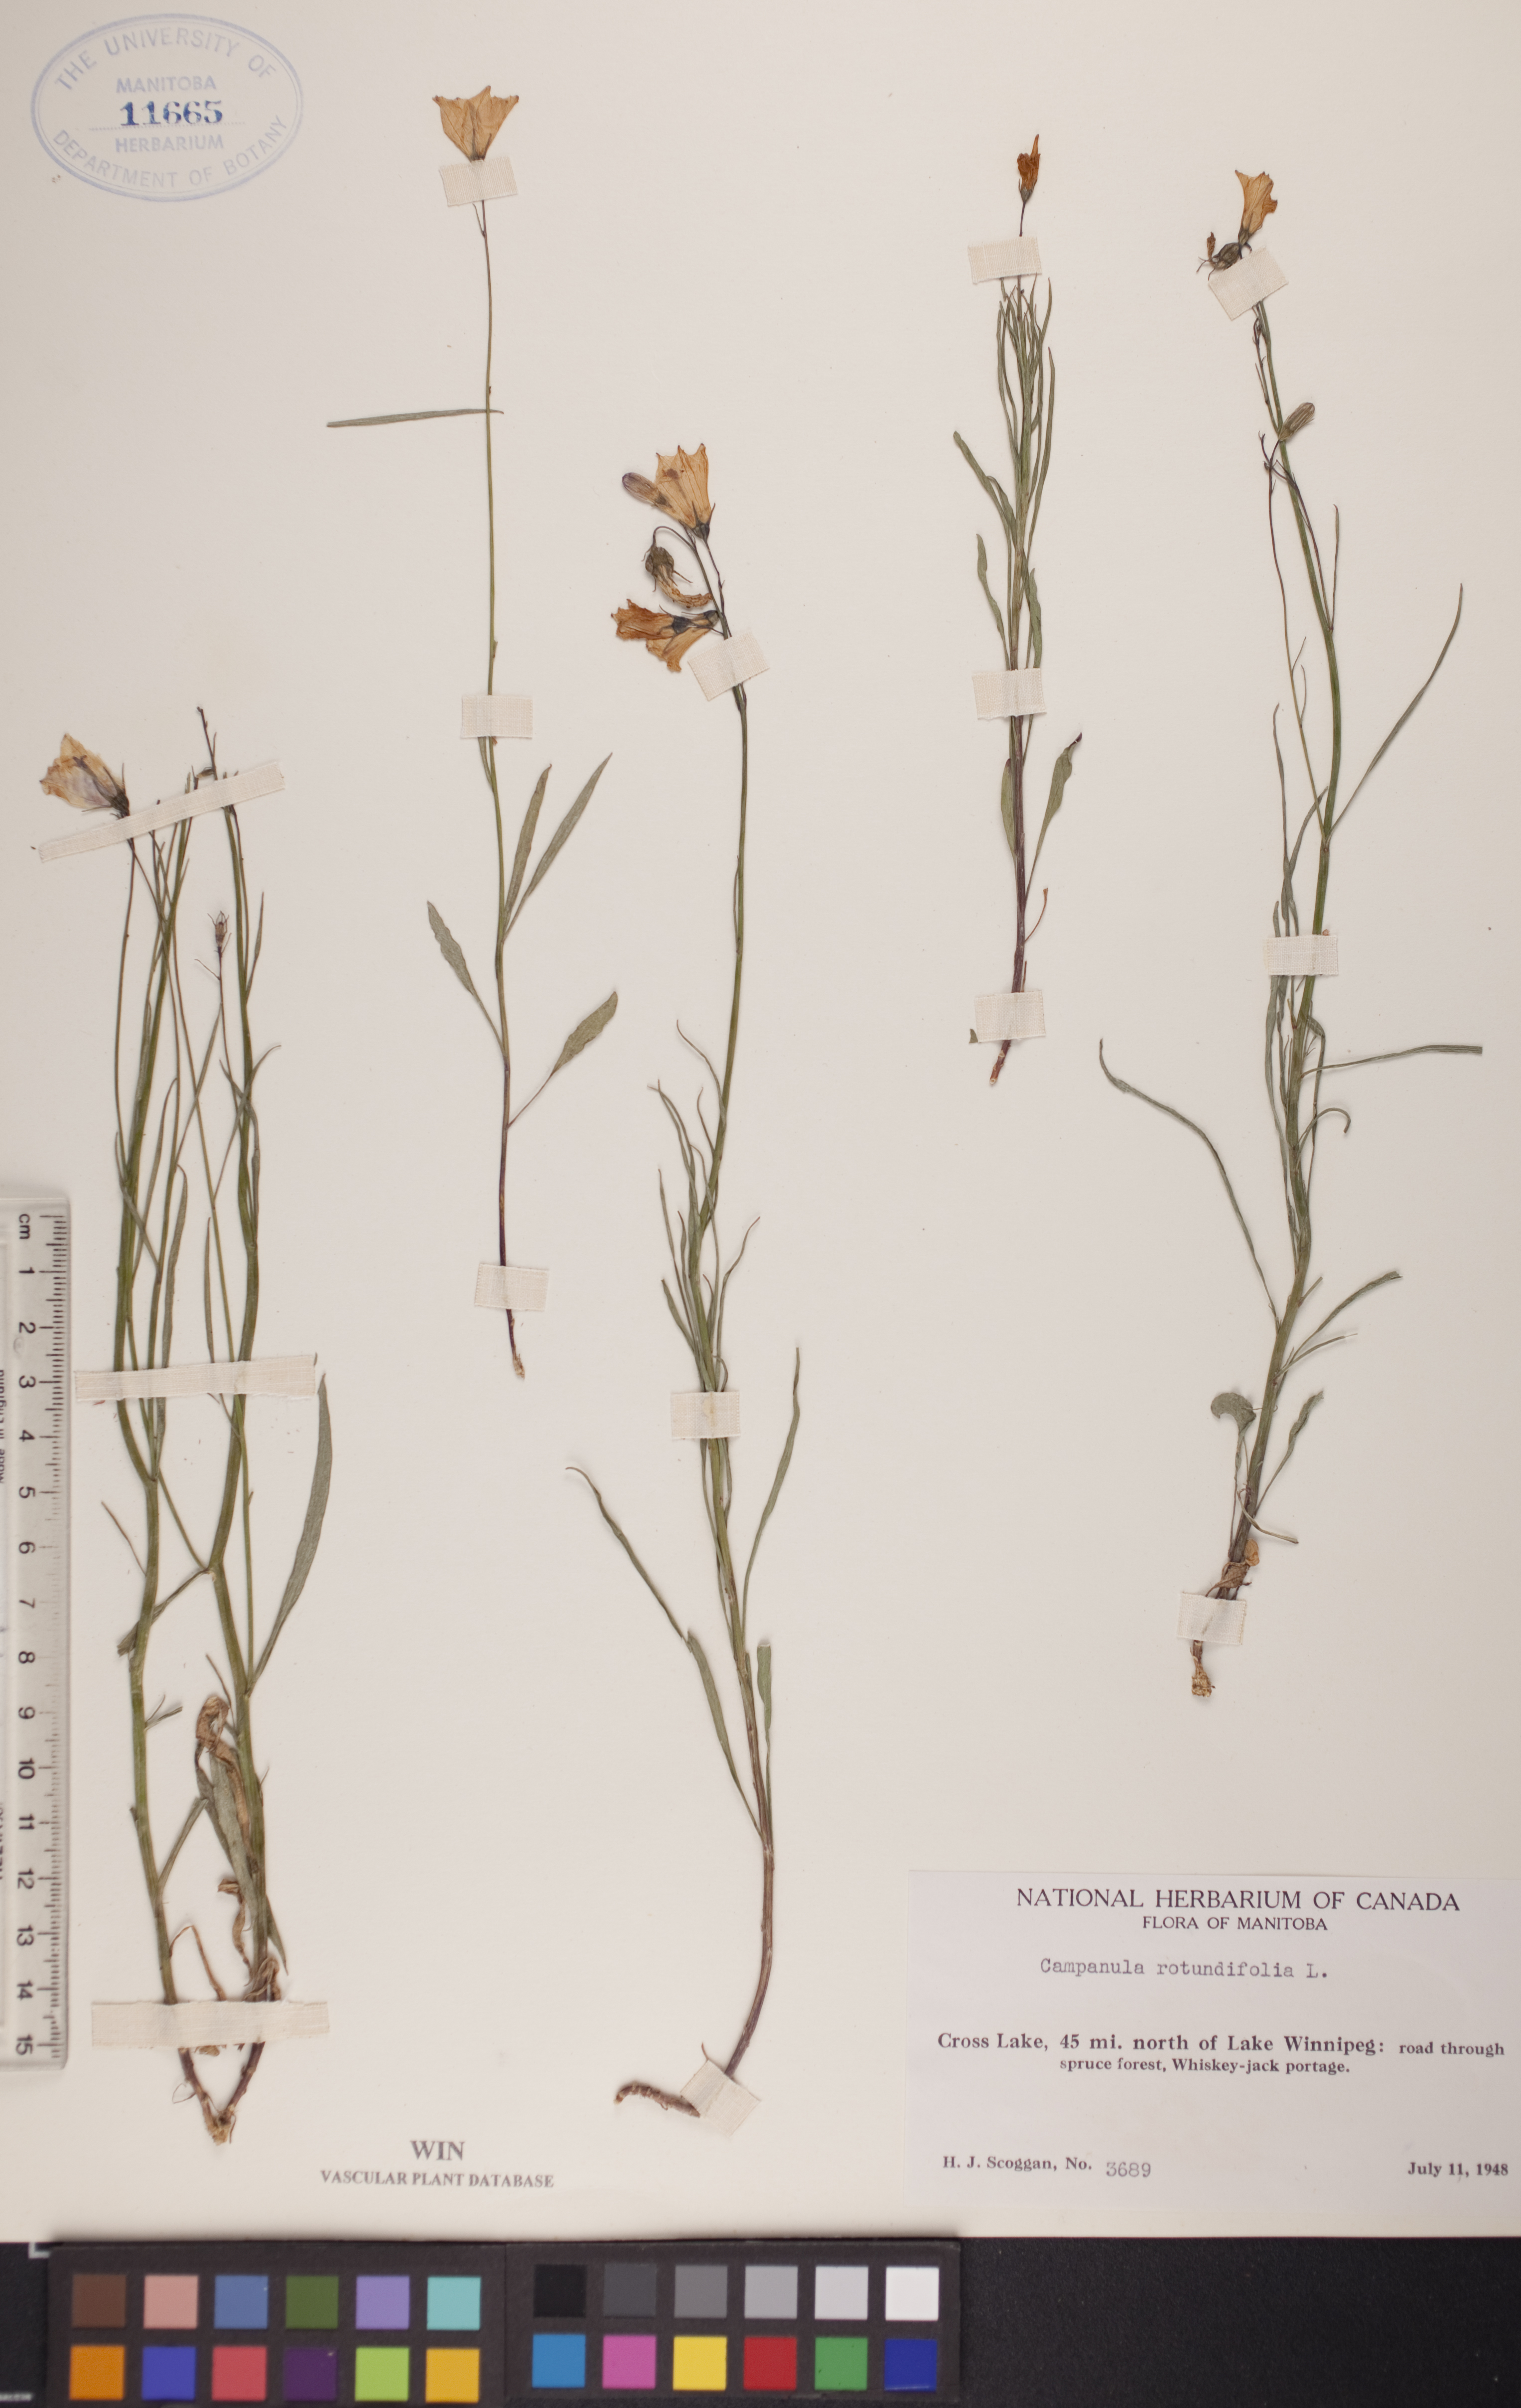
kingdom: Plantae
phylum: Tracheophyta
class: Magnoliopsida
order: Asterales
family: Campanulaceae
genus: Campanula
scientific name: Campanula rotundifolia
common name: Harebell
